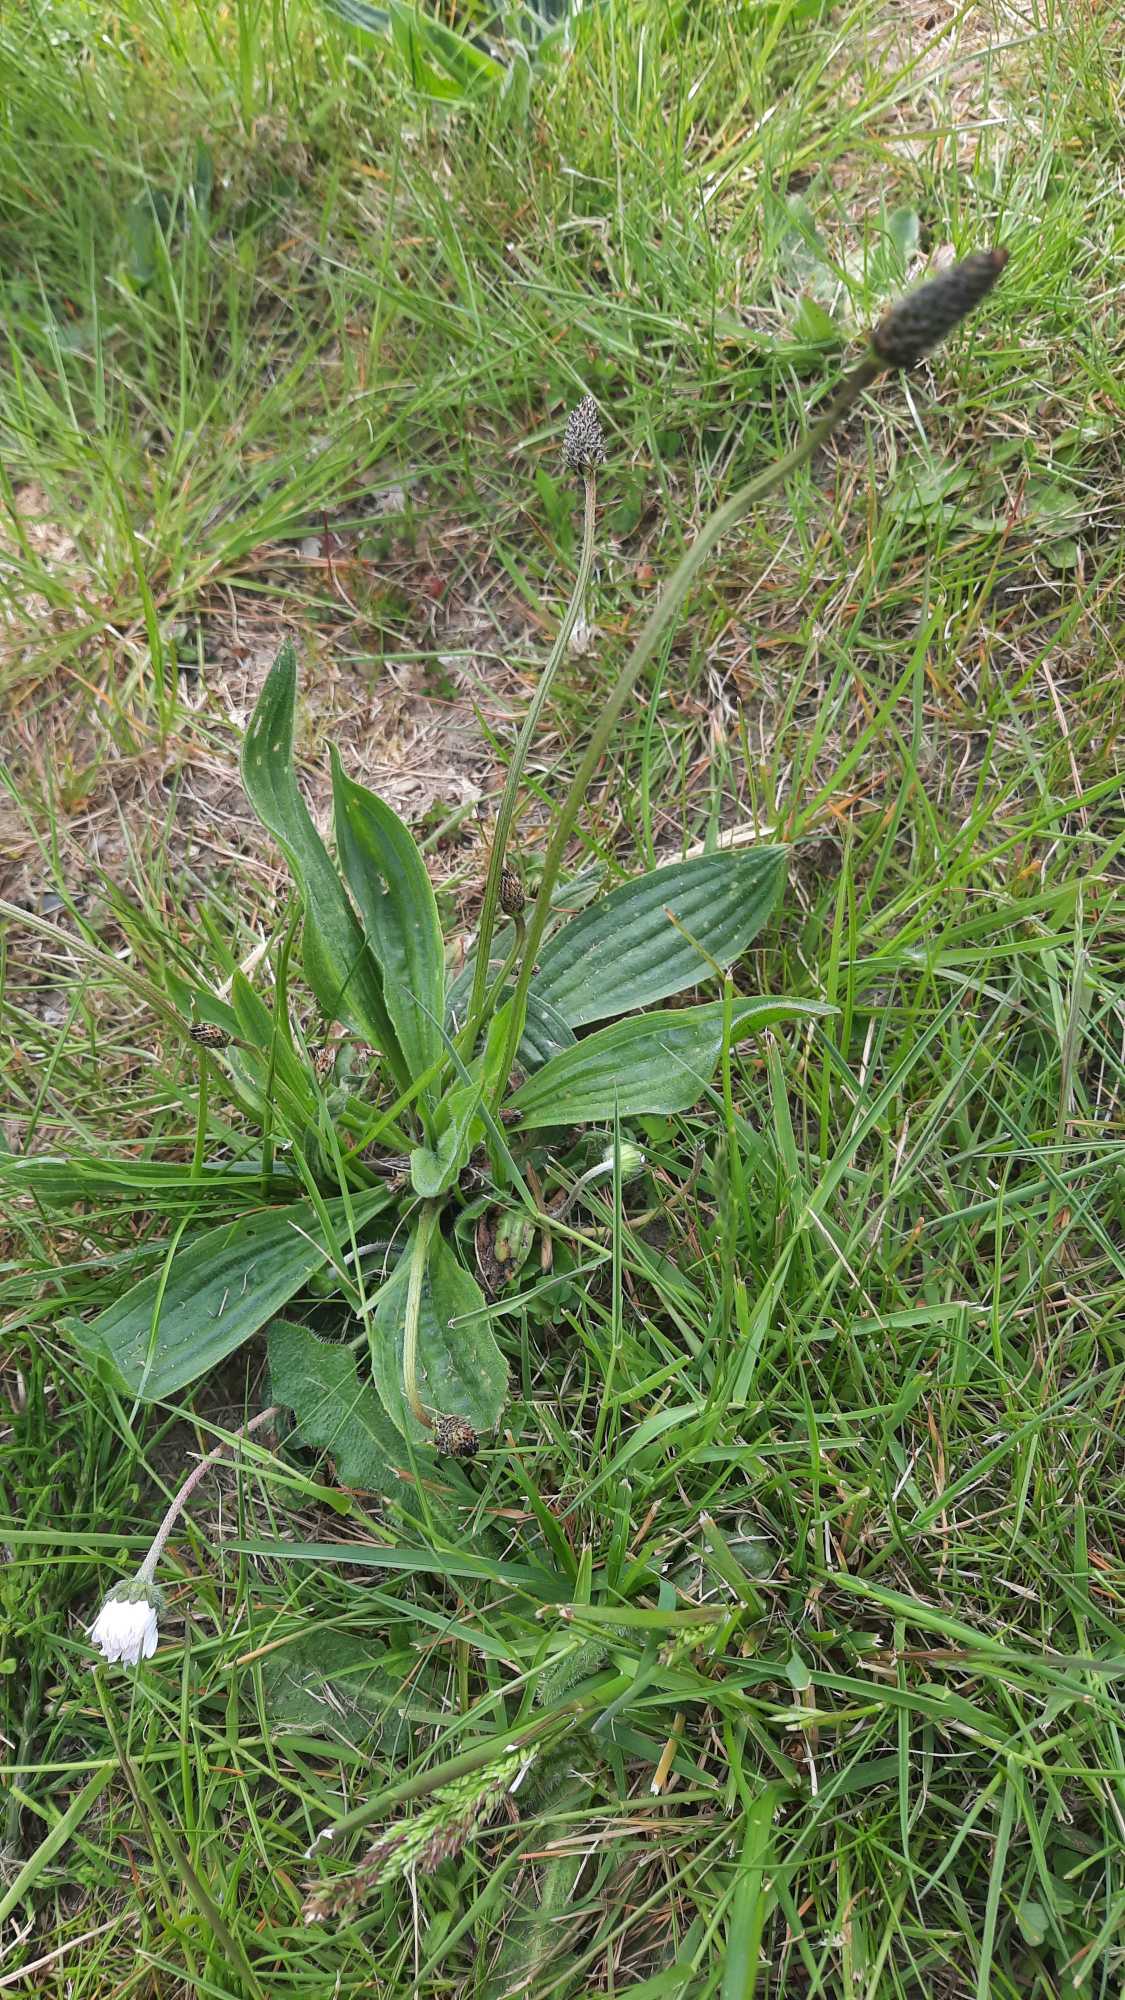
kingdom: Plantae
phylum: Tracheophyta
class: Magnoliopsida
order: Lamiales
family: Plantaginaceae
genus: Plantago
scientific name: Plantago lanceolata
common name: Lancet-vejbred
